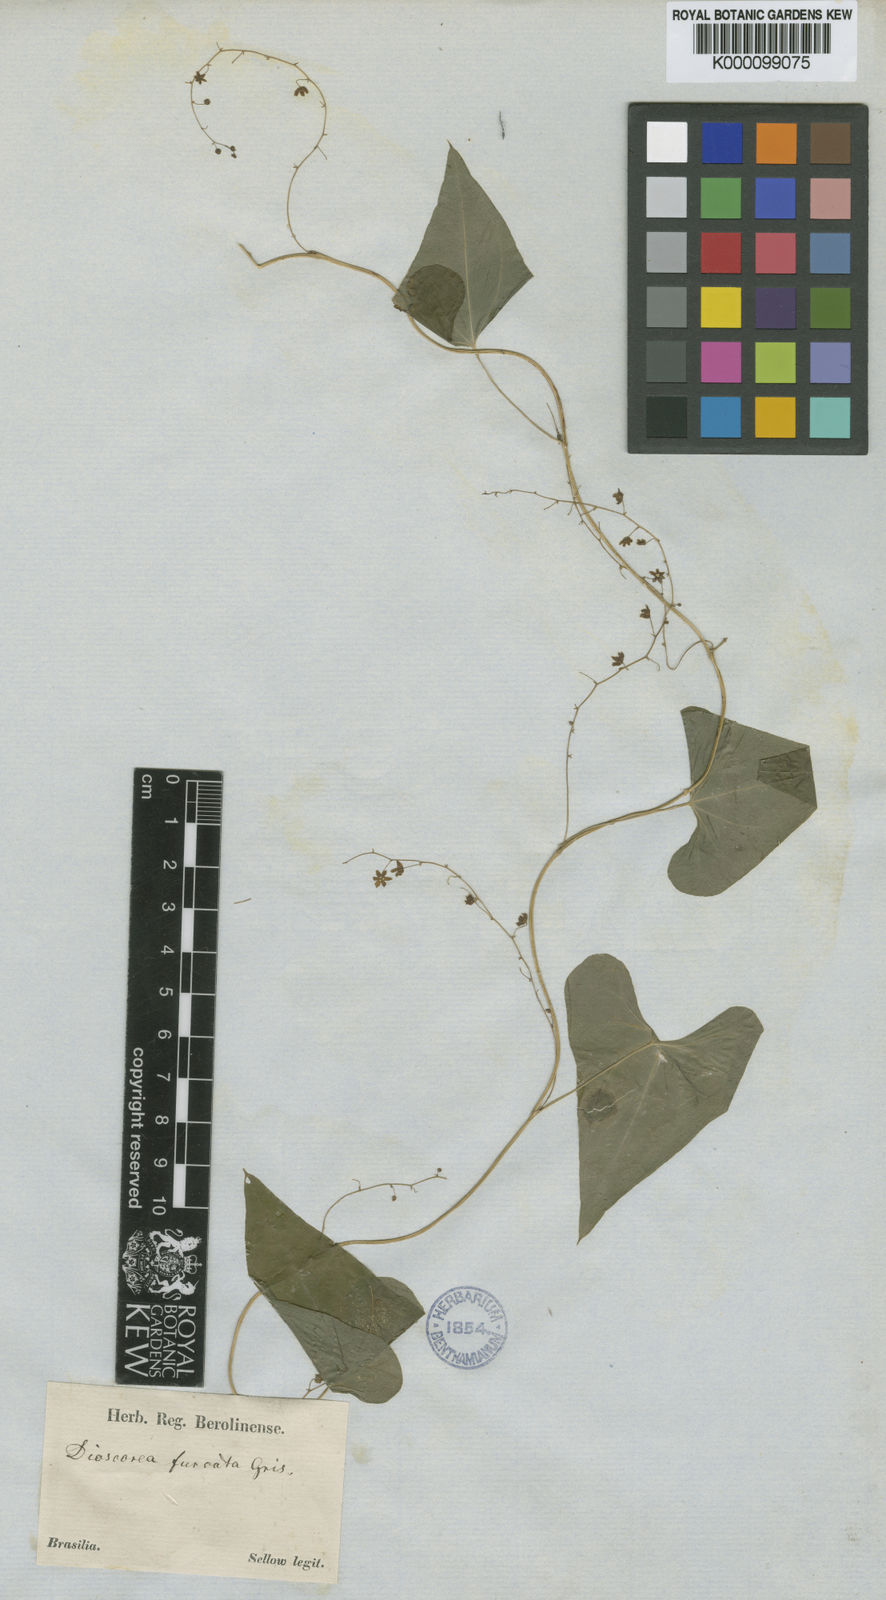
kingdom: Plantae
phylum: Tracheophyta
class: Liliopsida
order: Dioscoreales
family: Dioscoreaceae
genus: Dioscorea
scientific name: Dioscorea furcata
